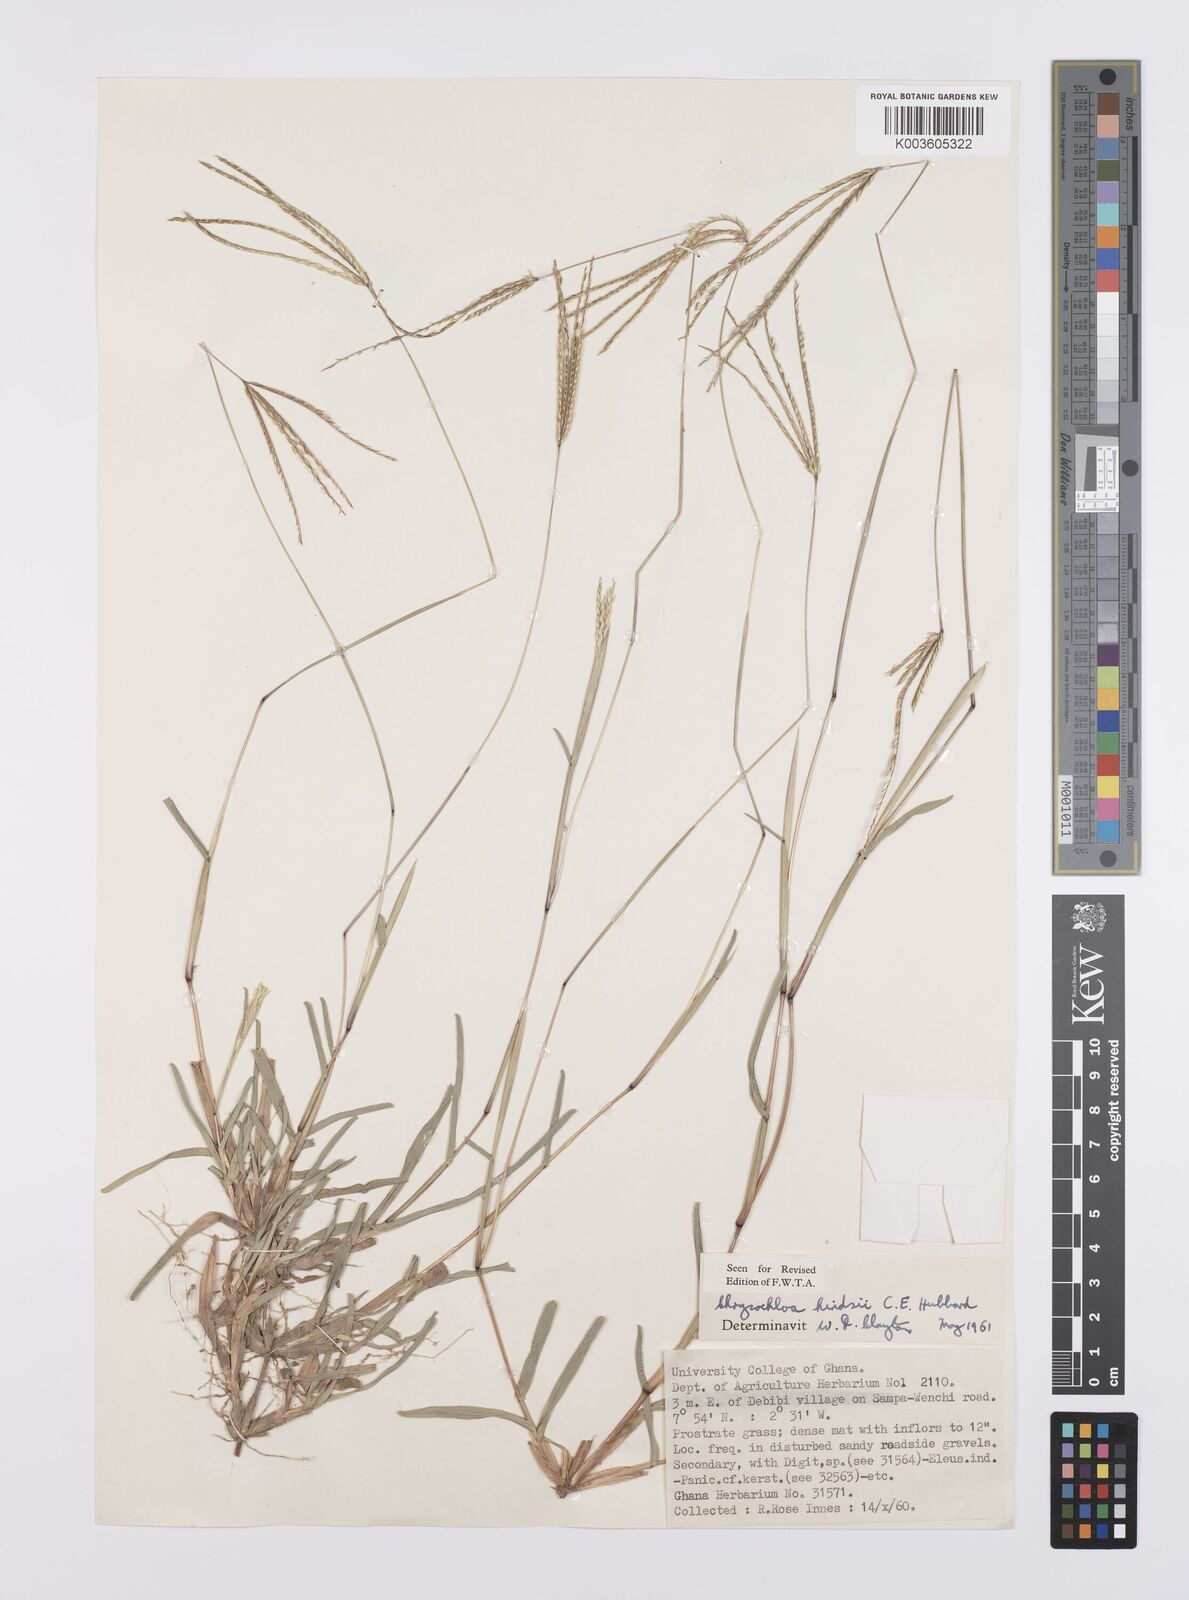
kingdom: Plantae
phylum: Tracheophyta
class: Liliopsida
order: Poales
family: Poaceae
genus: Chrysochloa
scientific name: Chrysochloa hindsii
